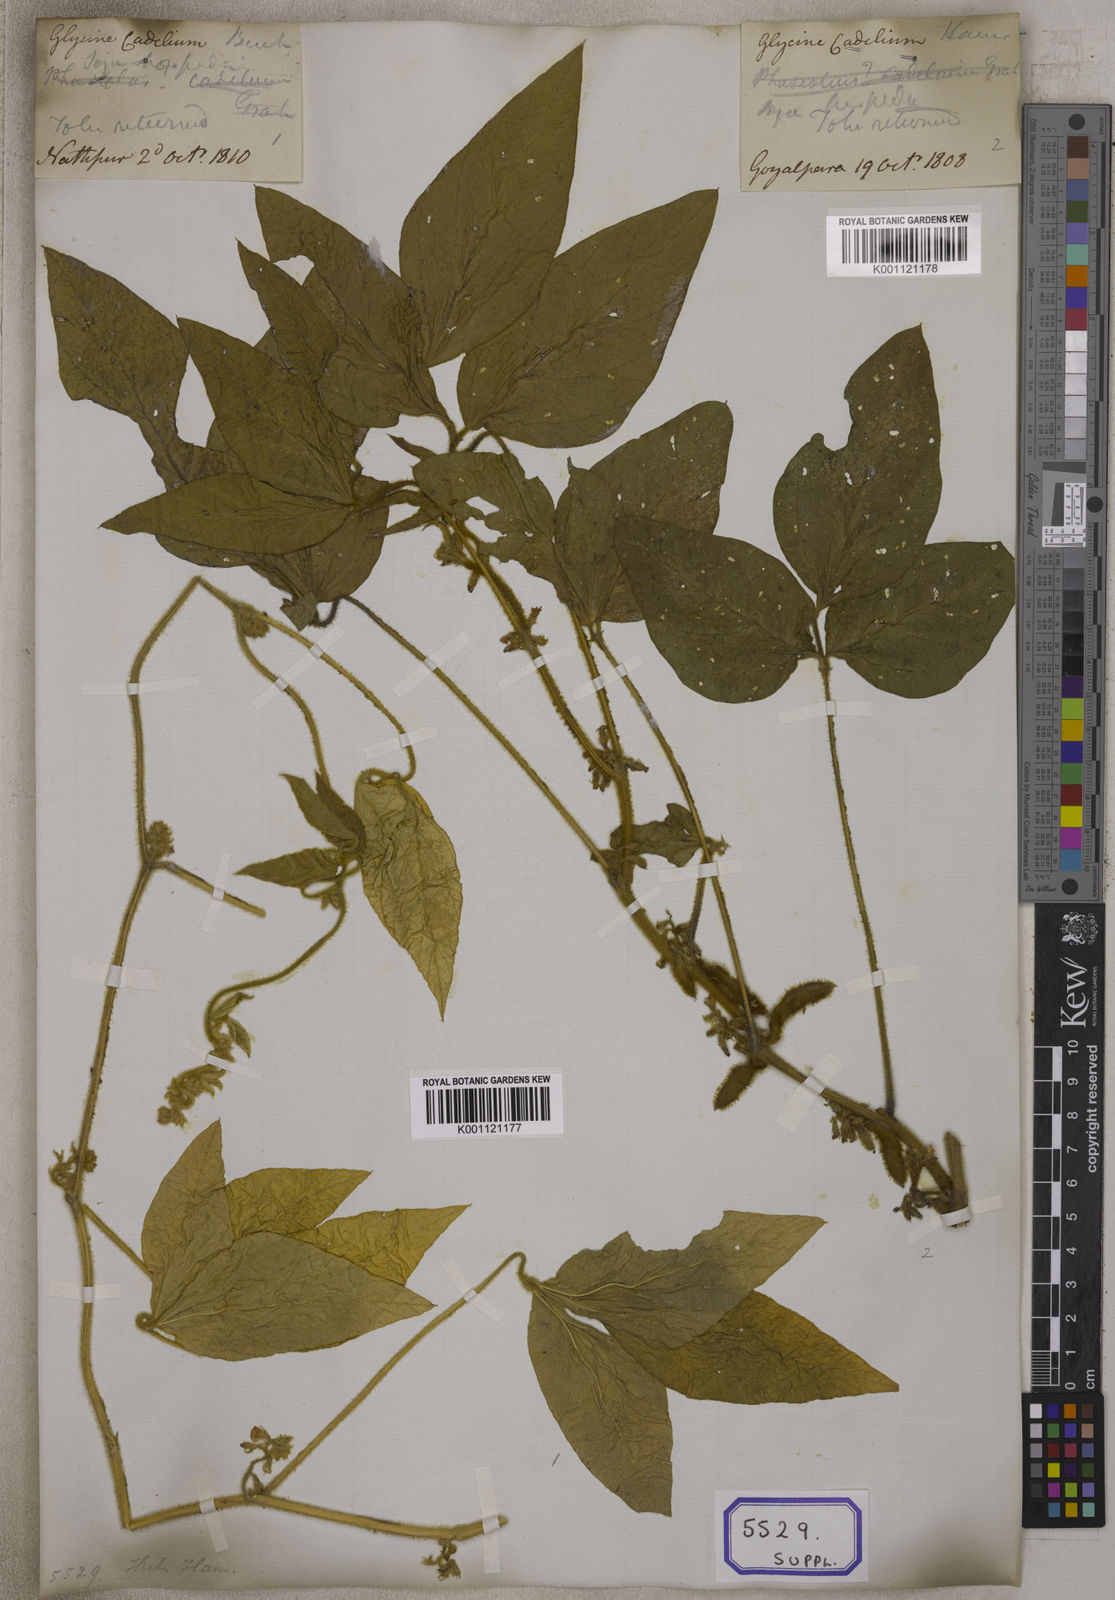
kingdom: Plantae
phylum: Tracheophyta
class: Magnoliopsida
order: Fabales
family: Fabaceae
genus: Glycine
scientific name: Glycine max
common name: Soya-bean
